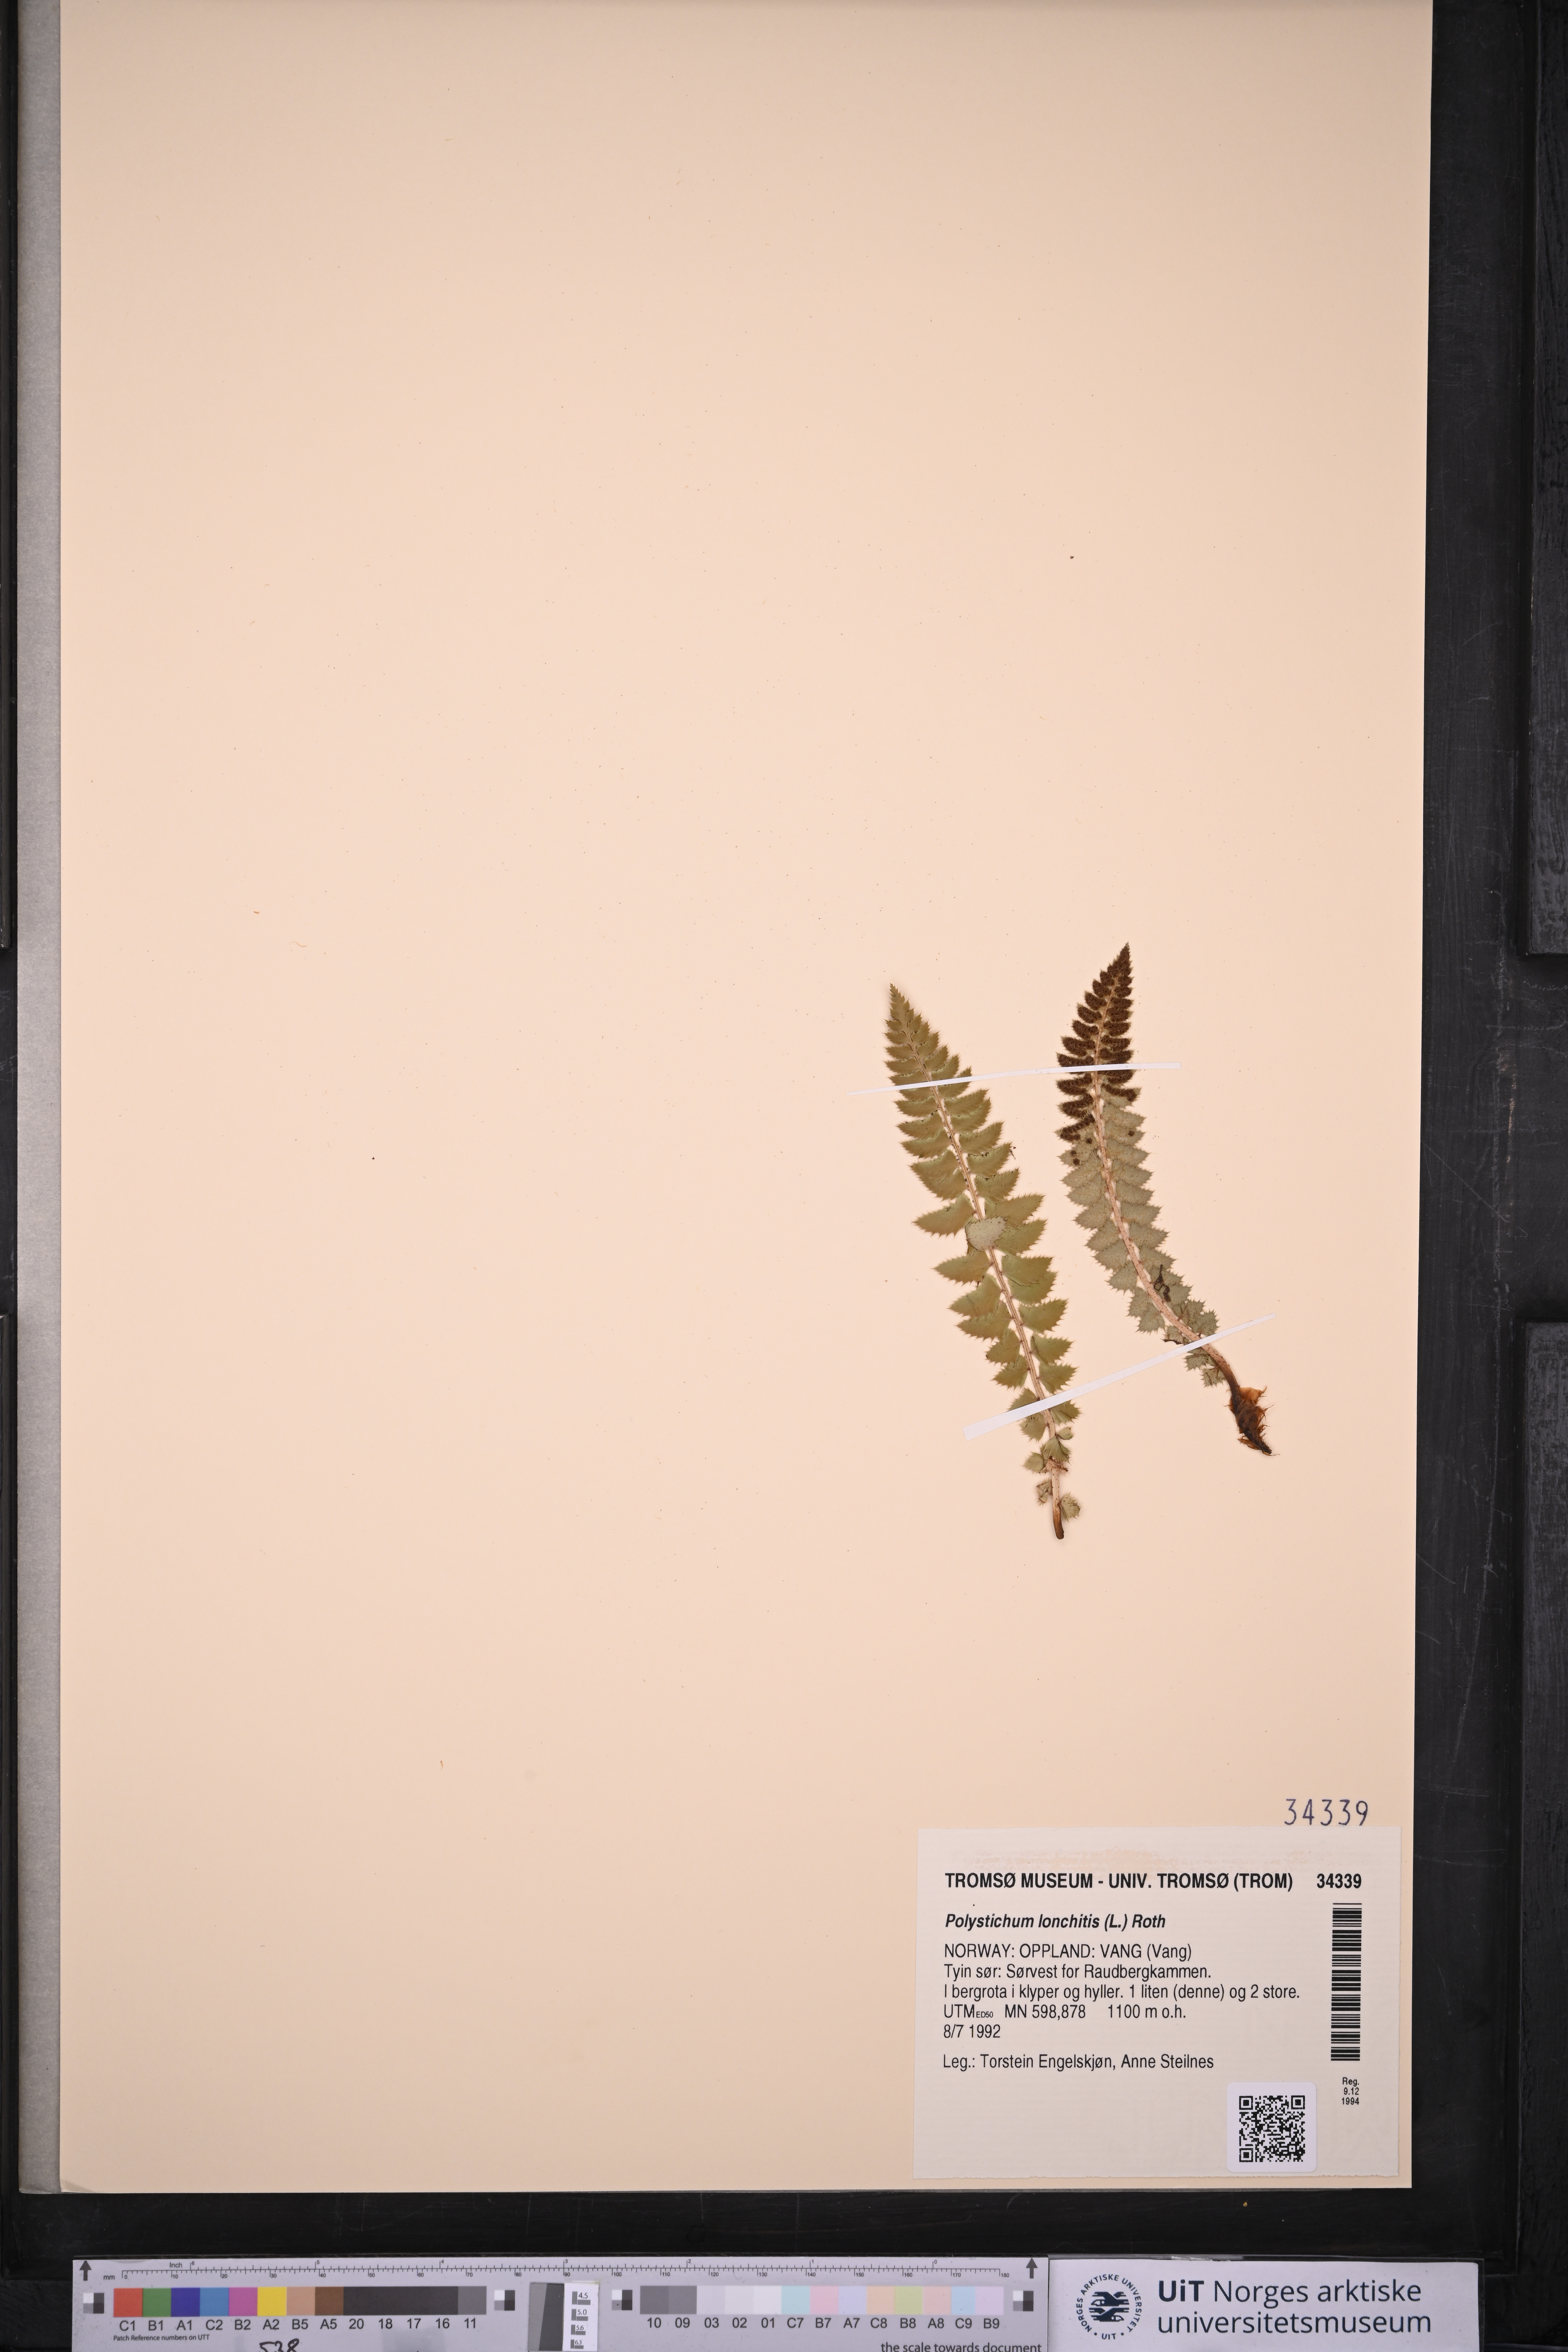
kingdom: Plantae
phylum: Tracheophyta
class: Polypodiopsida
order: Polypodiales
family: Dryopteridaceae
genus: Polystichum
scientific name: Polystichum lonchitis
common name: Holly fern
